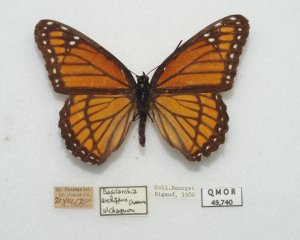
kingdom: Animalia
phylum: Arthropoda
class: Insecta
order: Lepidoptera
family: Nymphalidae
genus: Limenitis
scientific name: Limenitis archippus
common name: Viceroy
